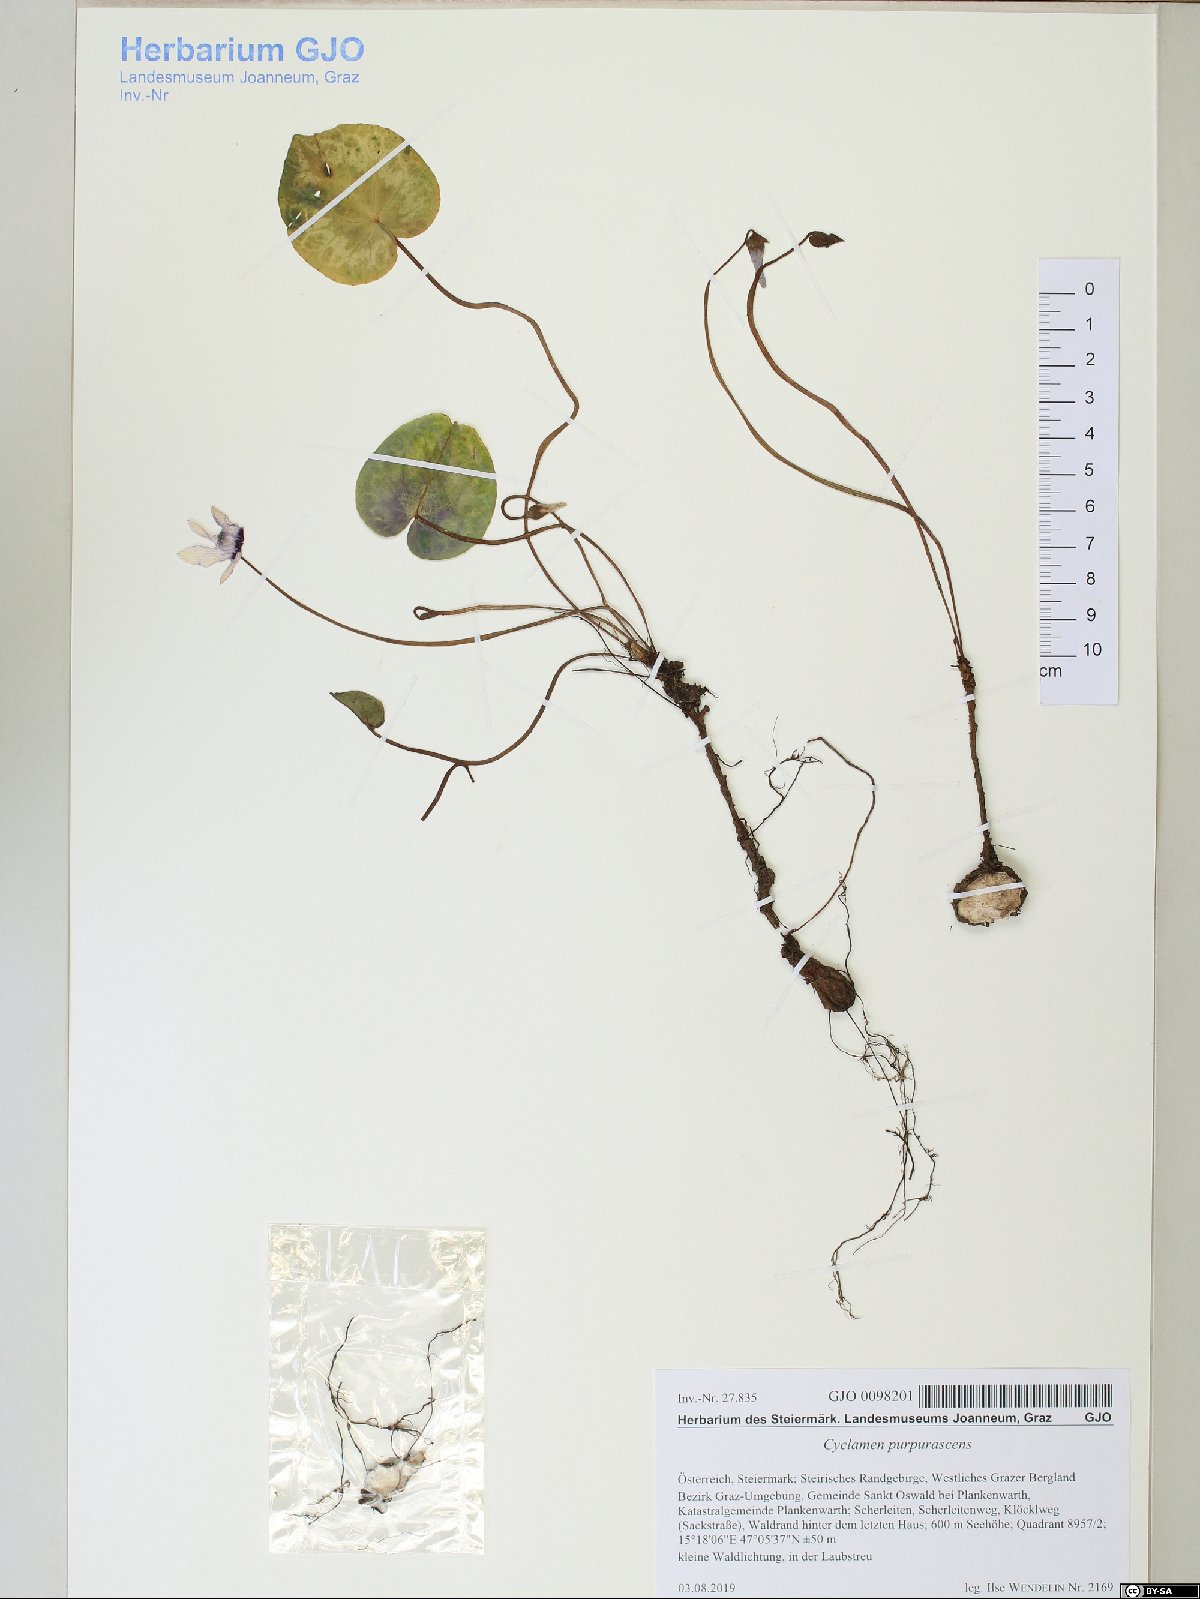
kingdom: Plantae
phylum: Tracheophyta
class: Magnoliopsida
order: Ericales
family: Primulaceae
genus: Cyclamen
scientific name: Cyclamen purpurascens
